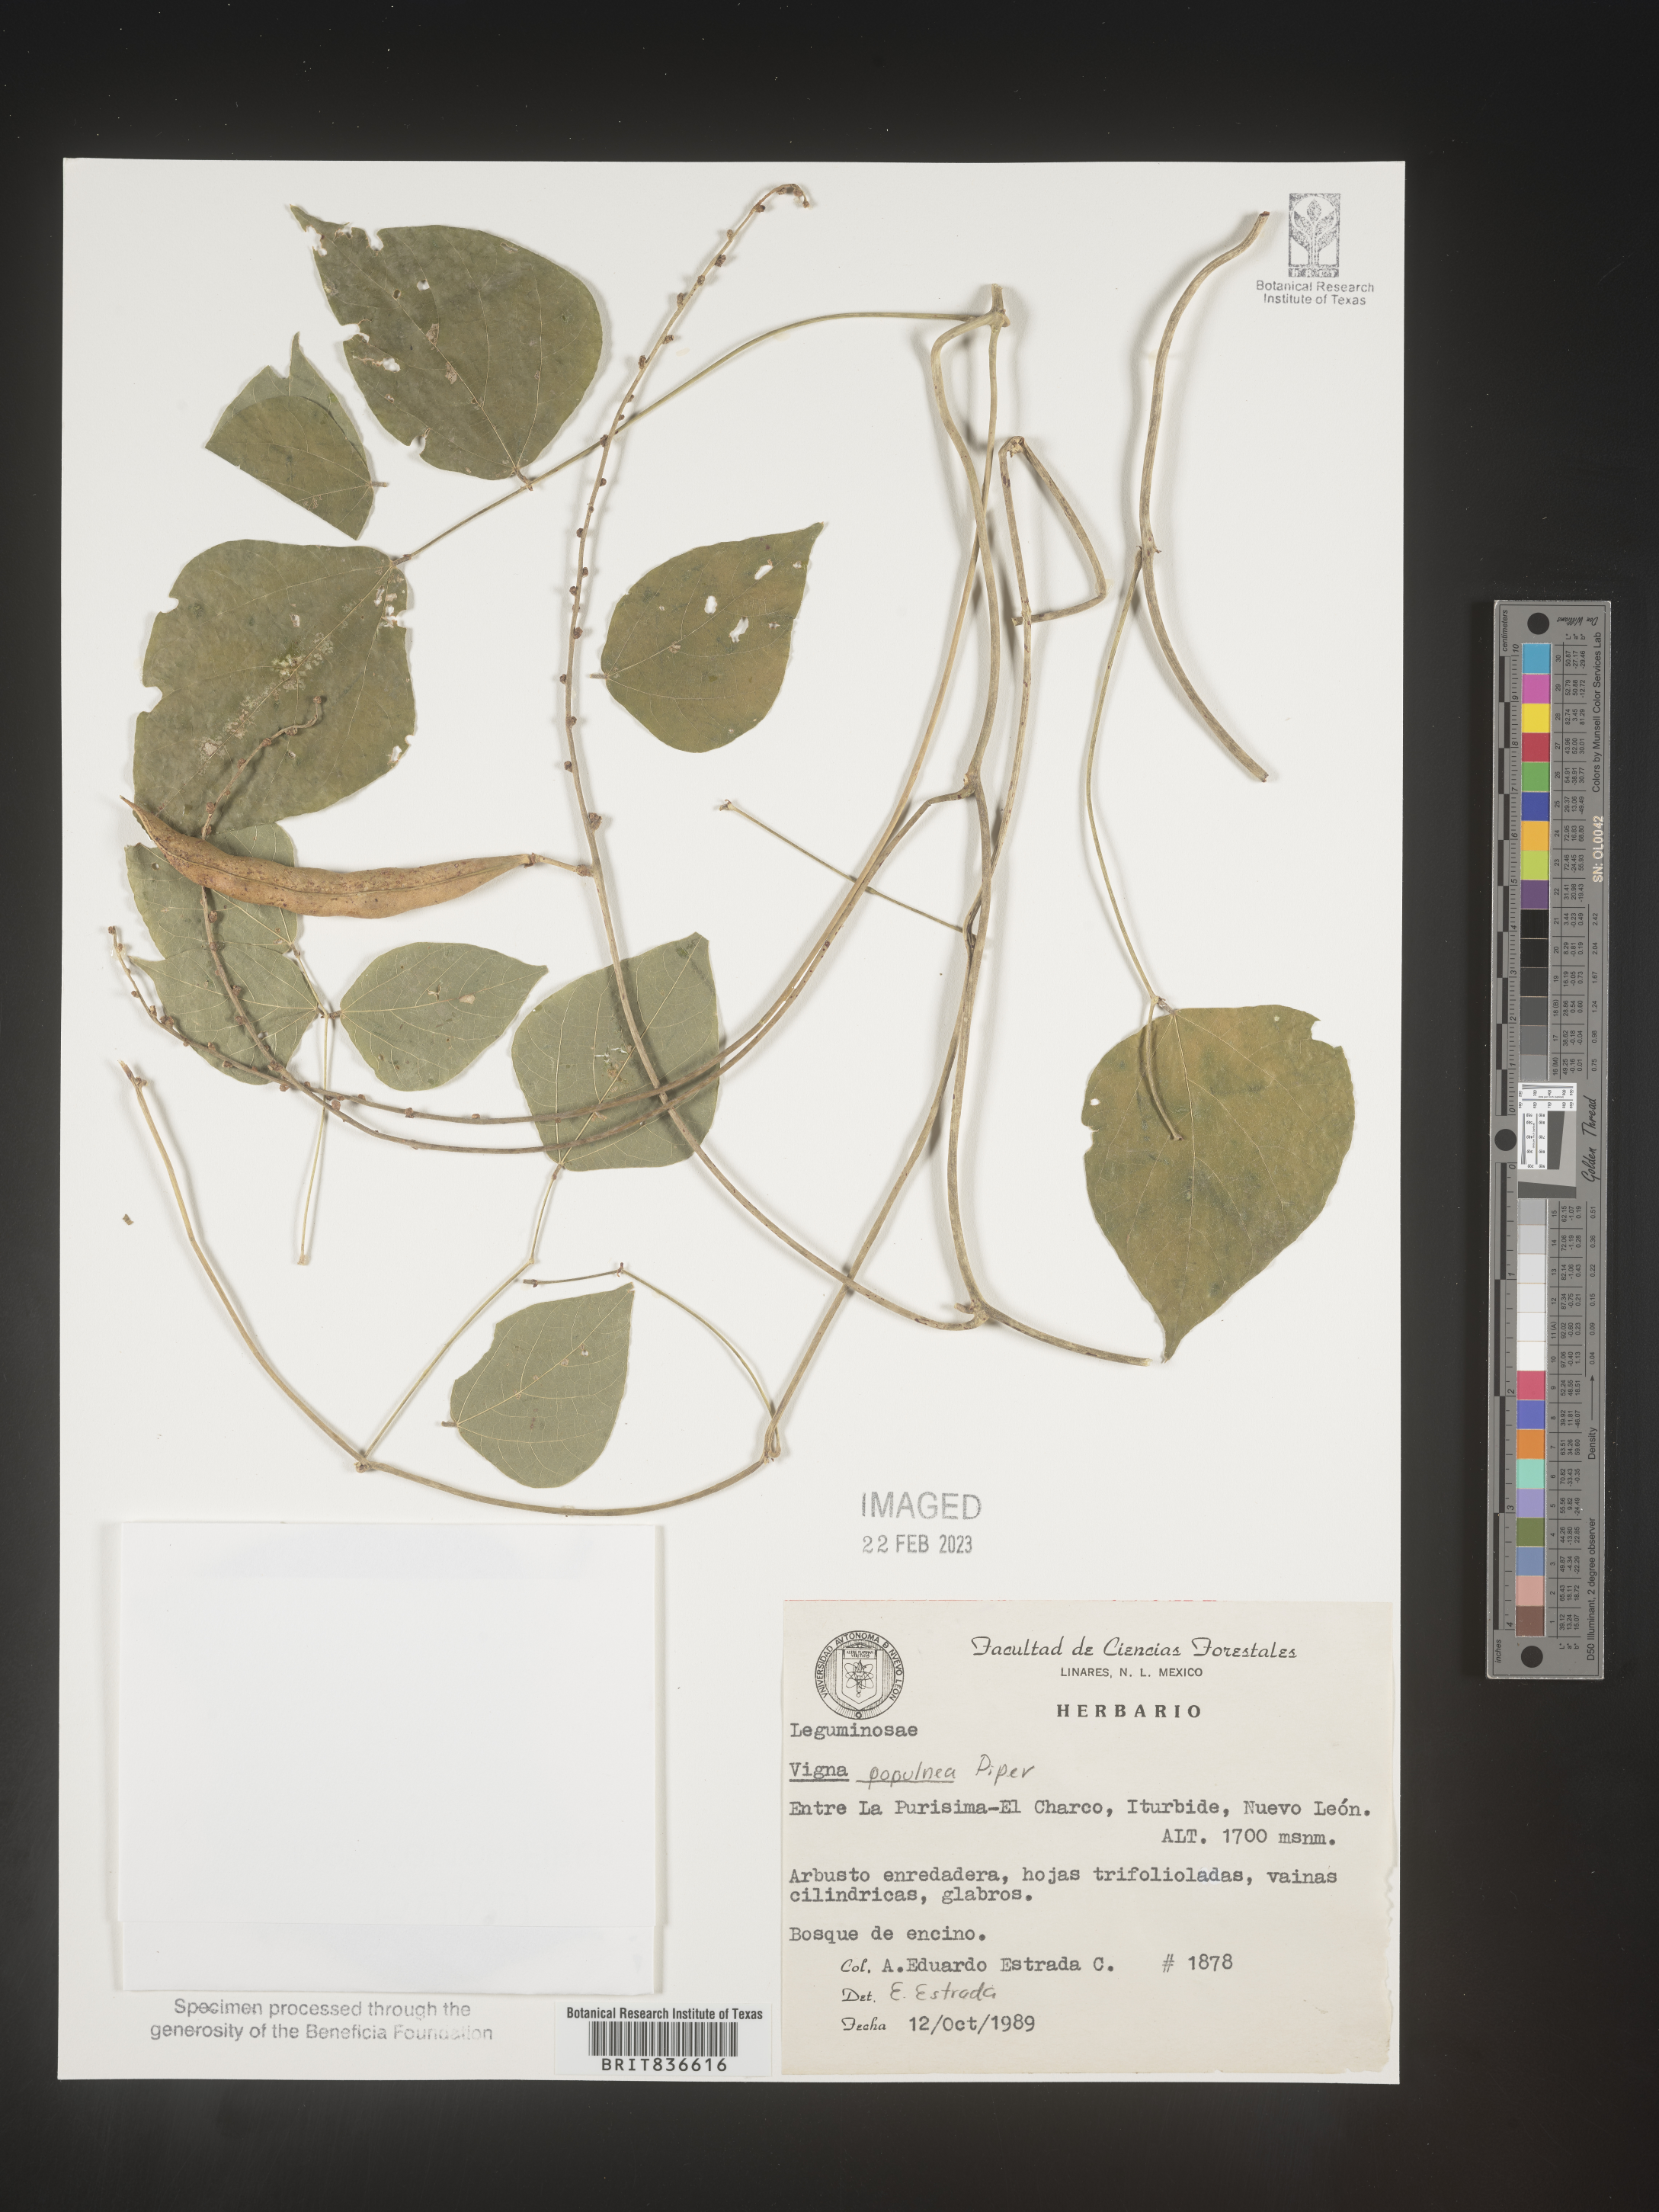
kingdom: Plantae
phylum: Tracheophyta
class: Magnoliopsida
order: Fabales
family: Fabaceae
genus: Vigna
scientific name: Vigna
